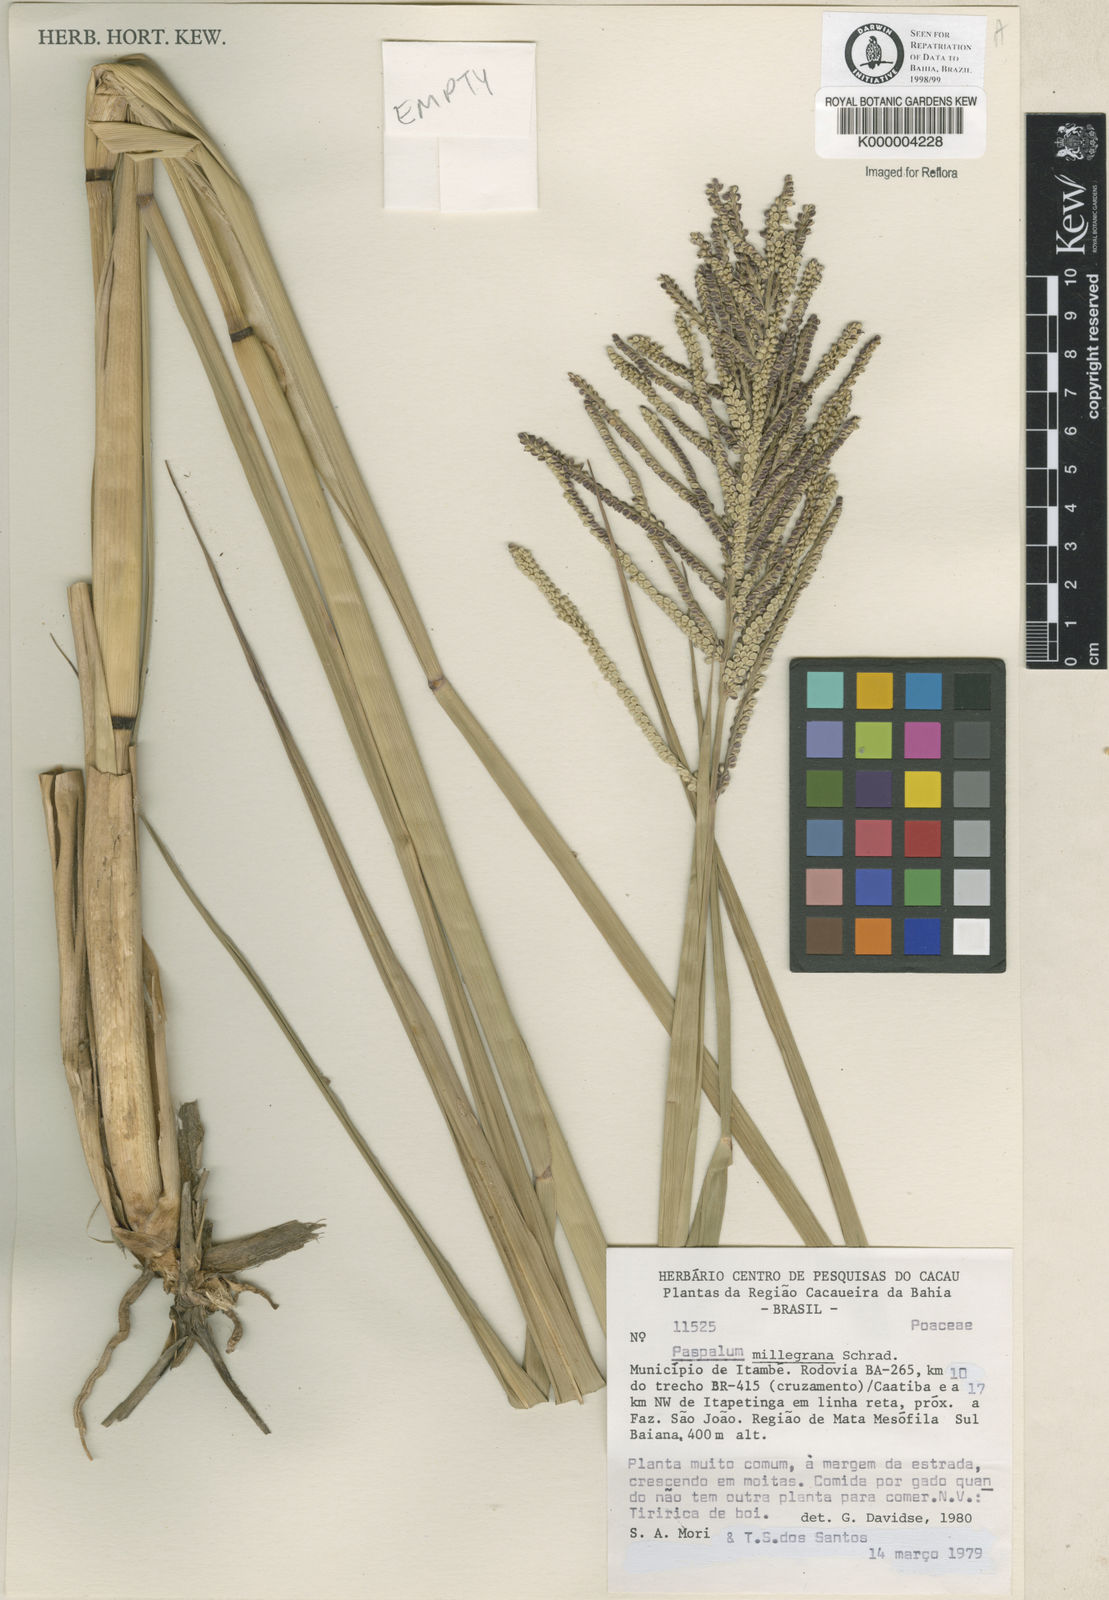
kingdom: Plantae
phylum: Tracheophyta
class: Liliopsida
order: Poales
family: Poaceae
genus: Paspalum
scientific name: Paspalum millegranum
